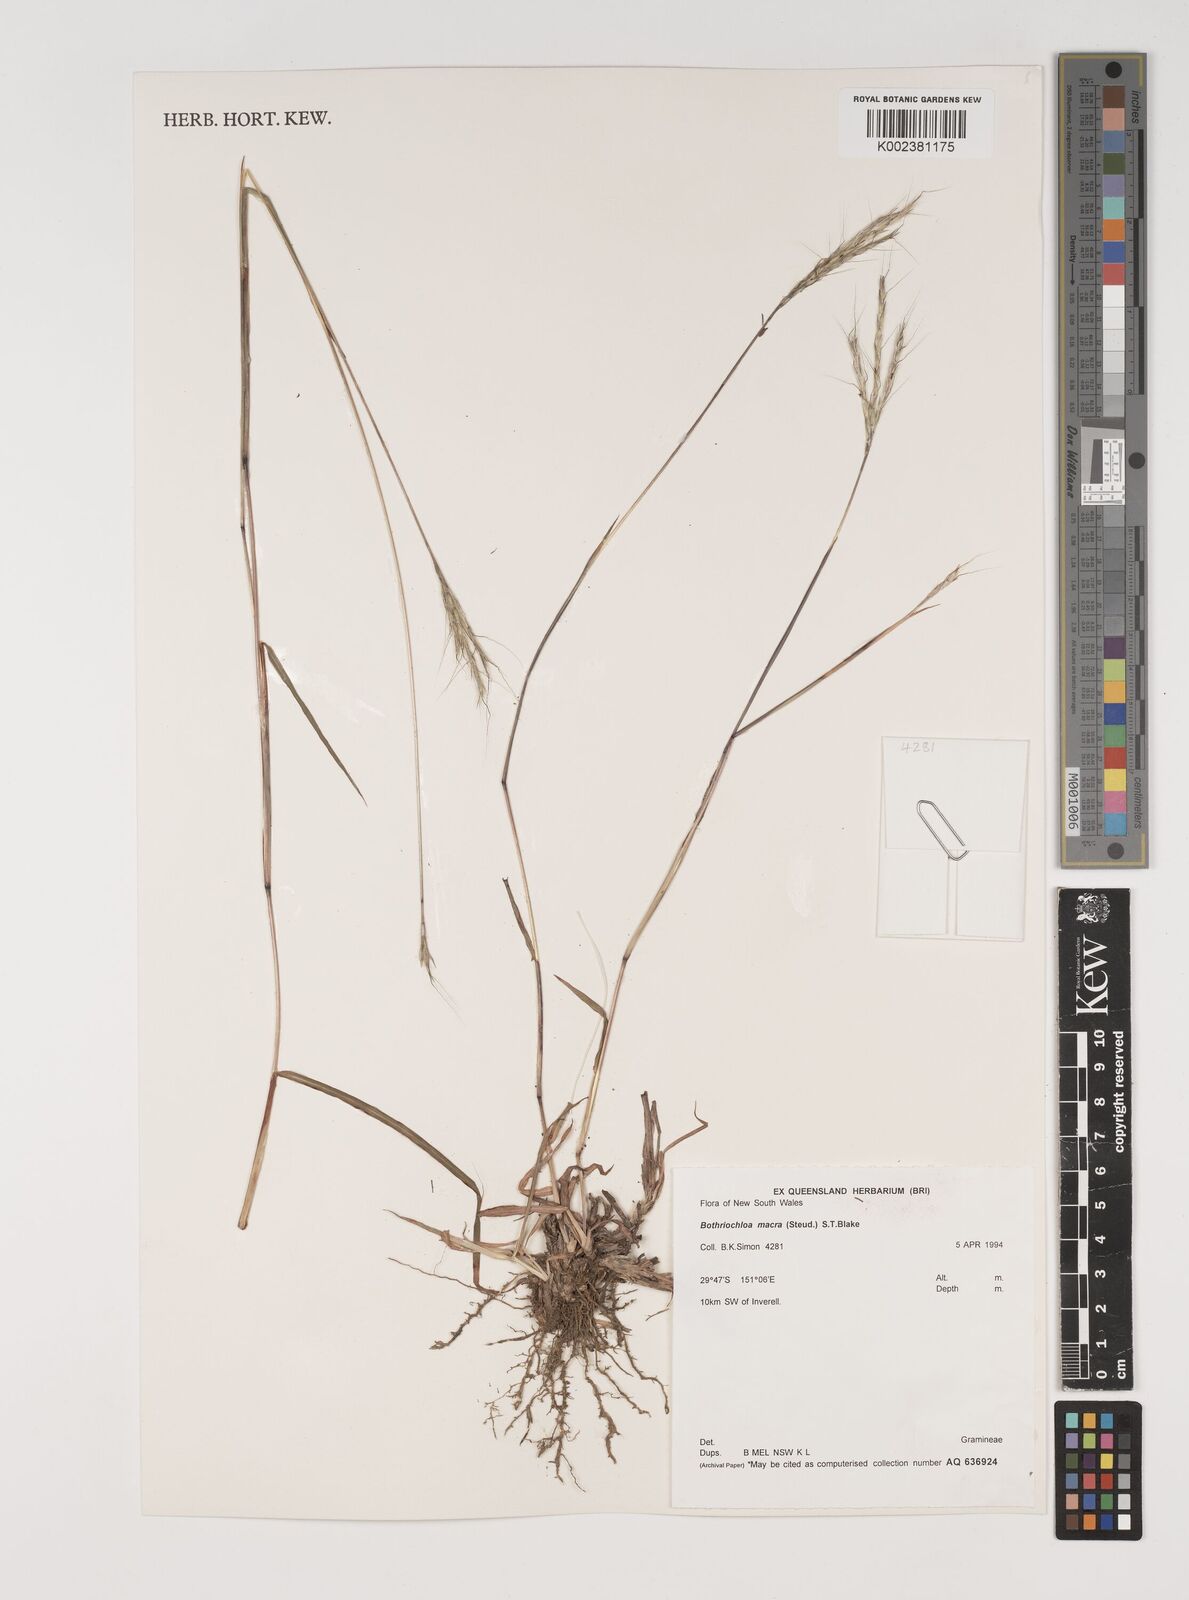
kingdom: Plantae
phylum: Tracheophyta
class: Liliopsida
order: Poales
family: Poaceae
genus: Bothriochloa
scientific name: Bothriochloa macra
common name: Pitted beard grass
